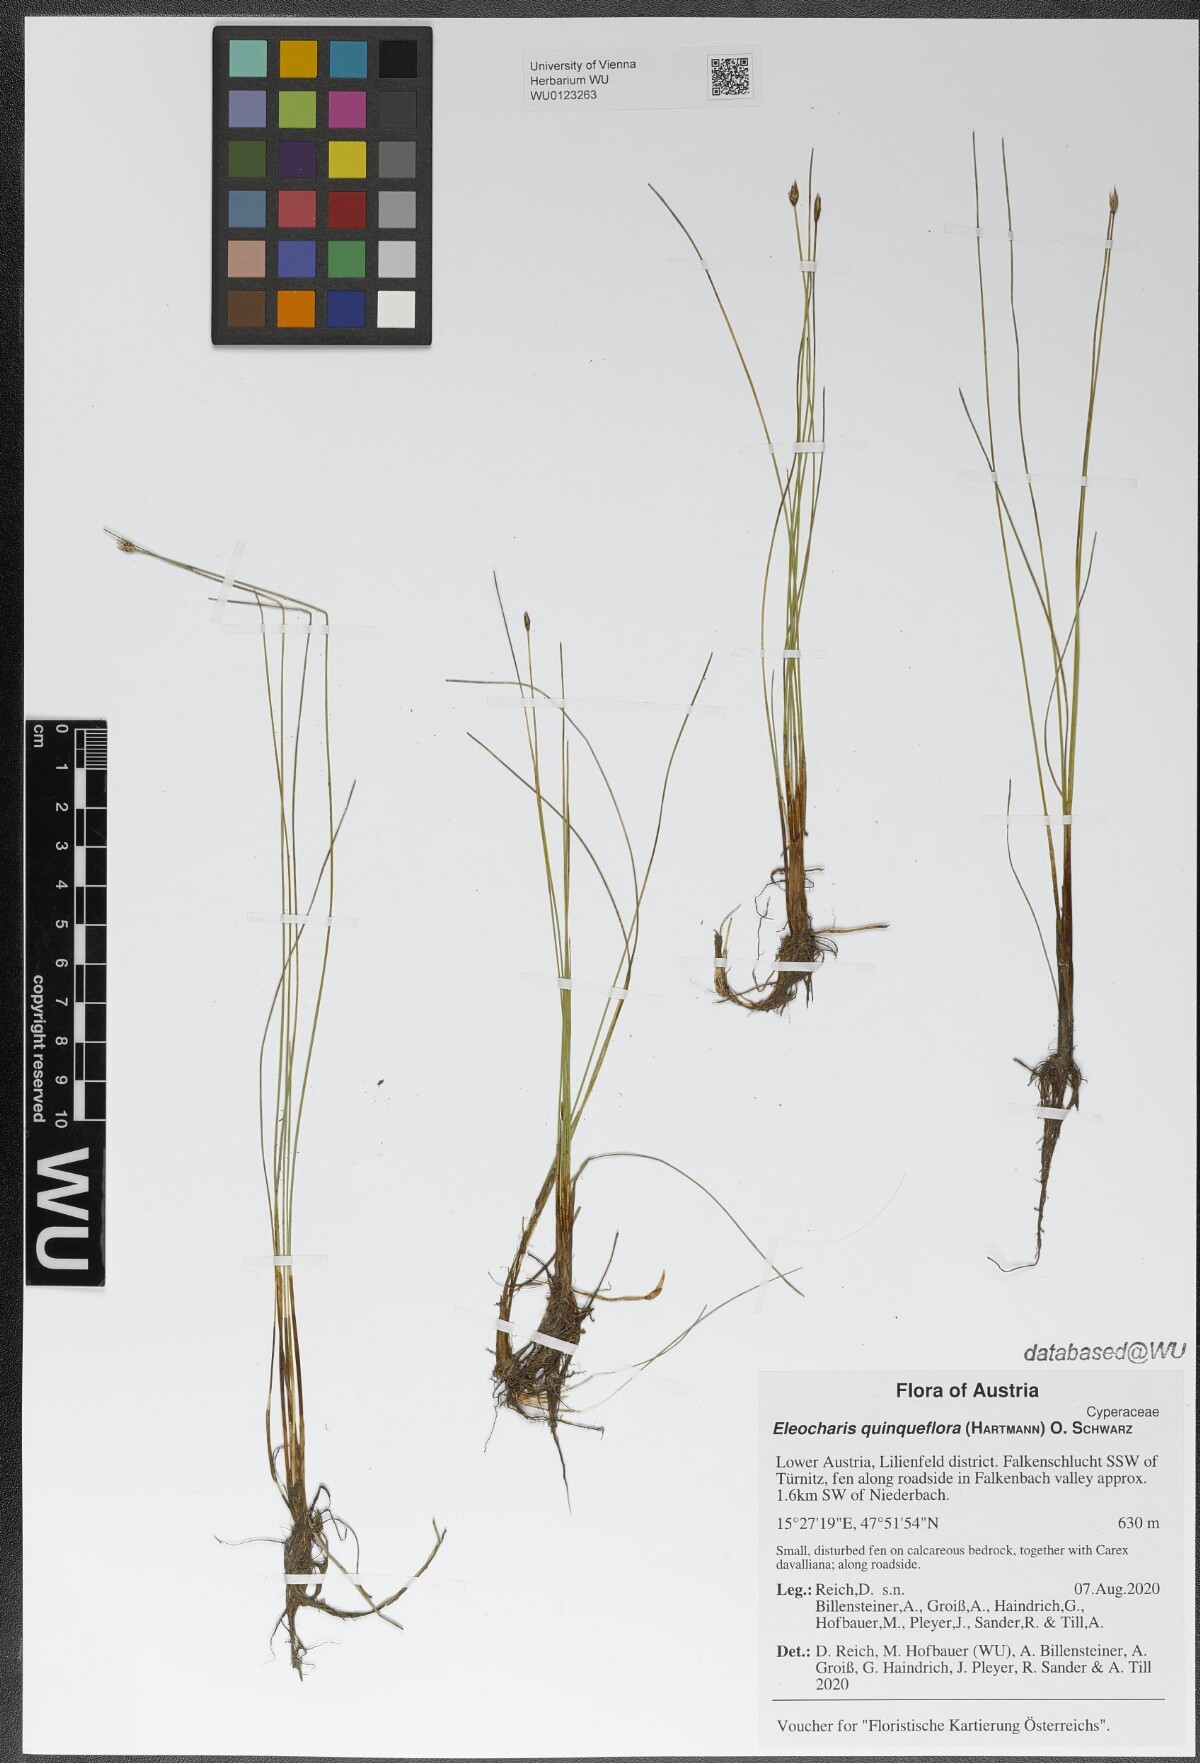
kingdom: Plantae
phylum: Tracheophyta
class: Liliopsida
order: Poales
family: Cyperaceae
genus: Eleocharis
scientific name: Eleocharis quinqueflora
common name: Few-flowered spike-rush
